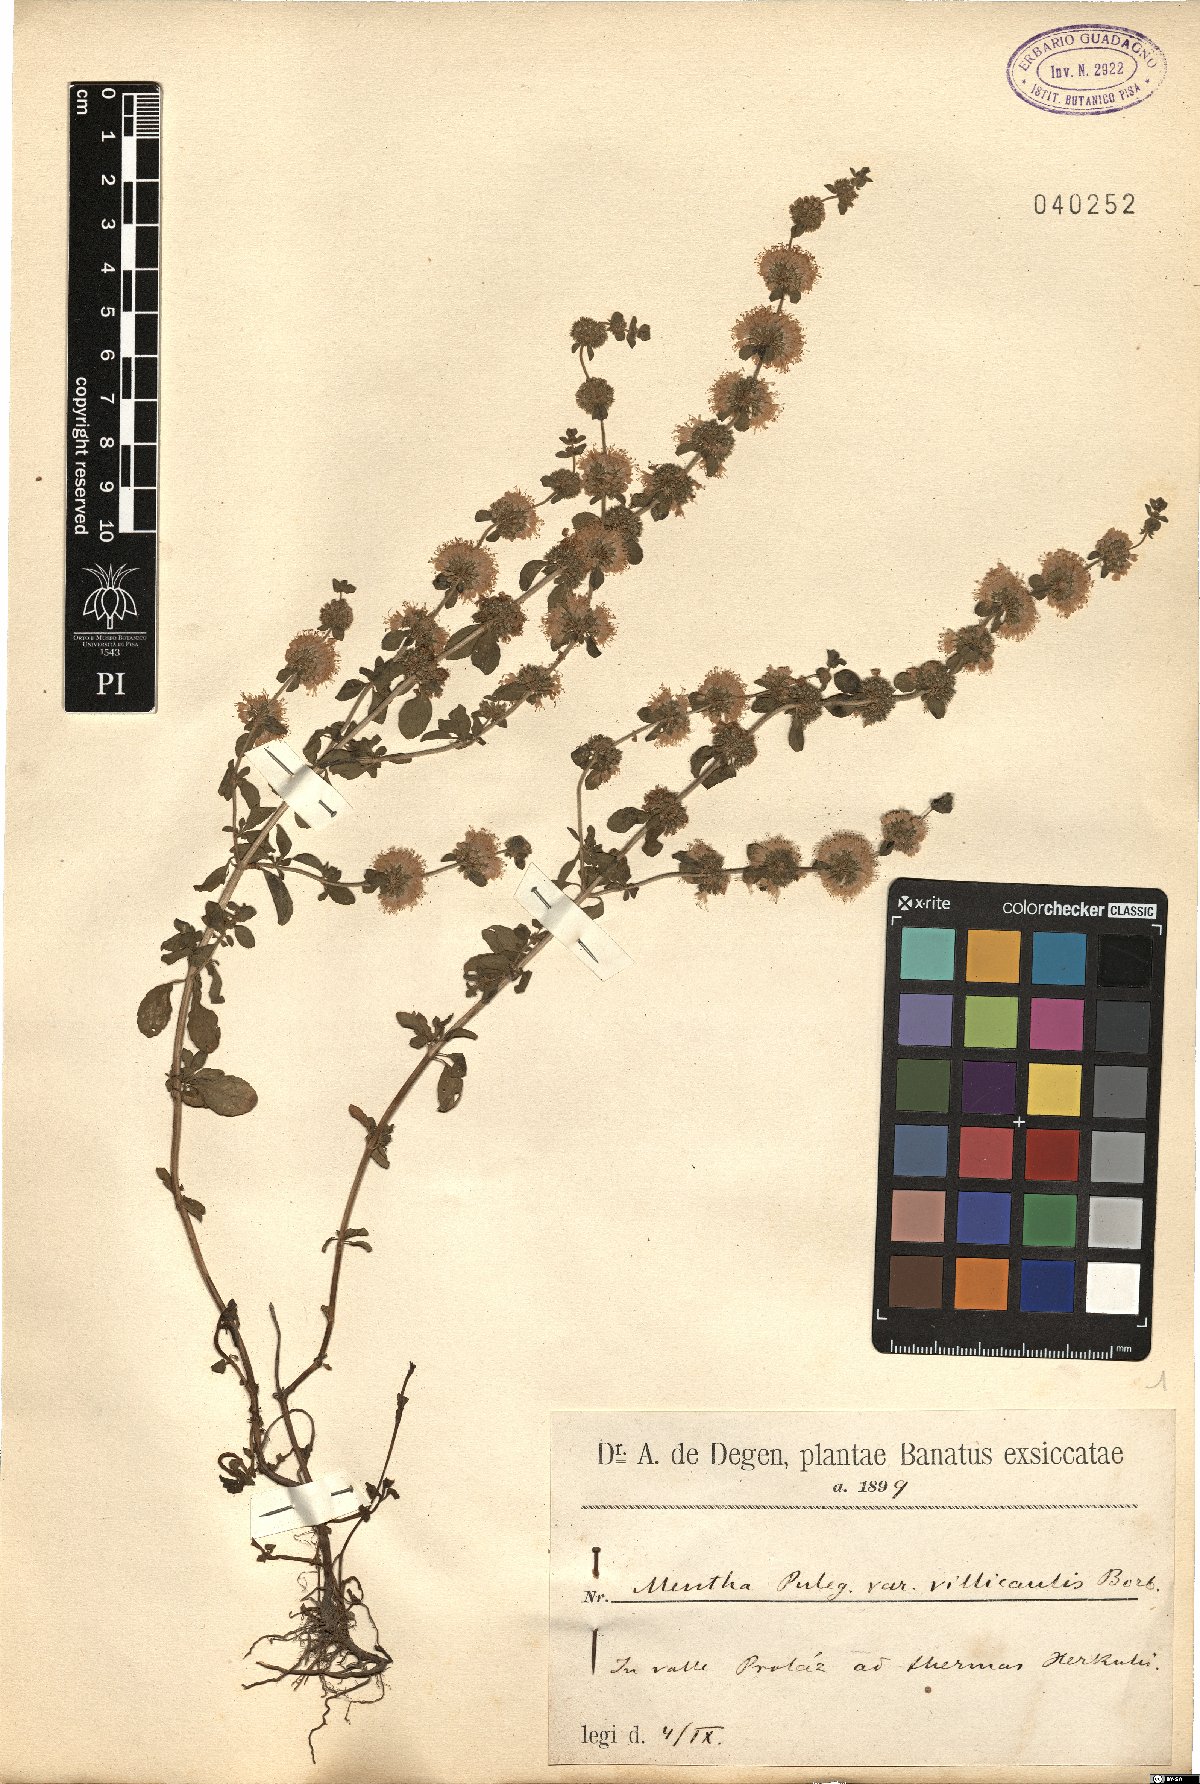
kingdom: Plantae
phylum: Tracheophyta
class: Magnoliopsida
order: Lamiales
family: Lamiaceae
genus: Mentha
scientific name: Mentha pulegium
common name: Pennyroyal
